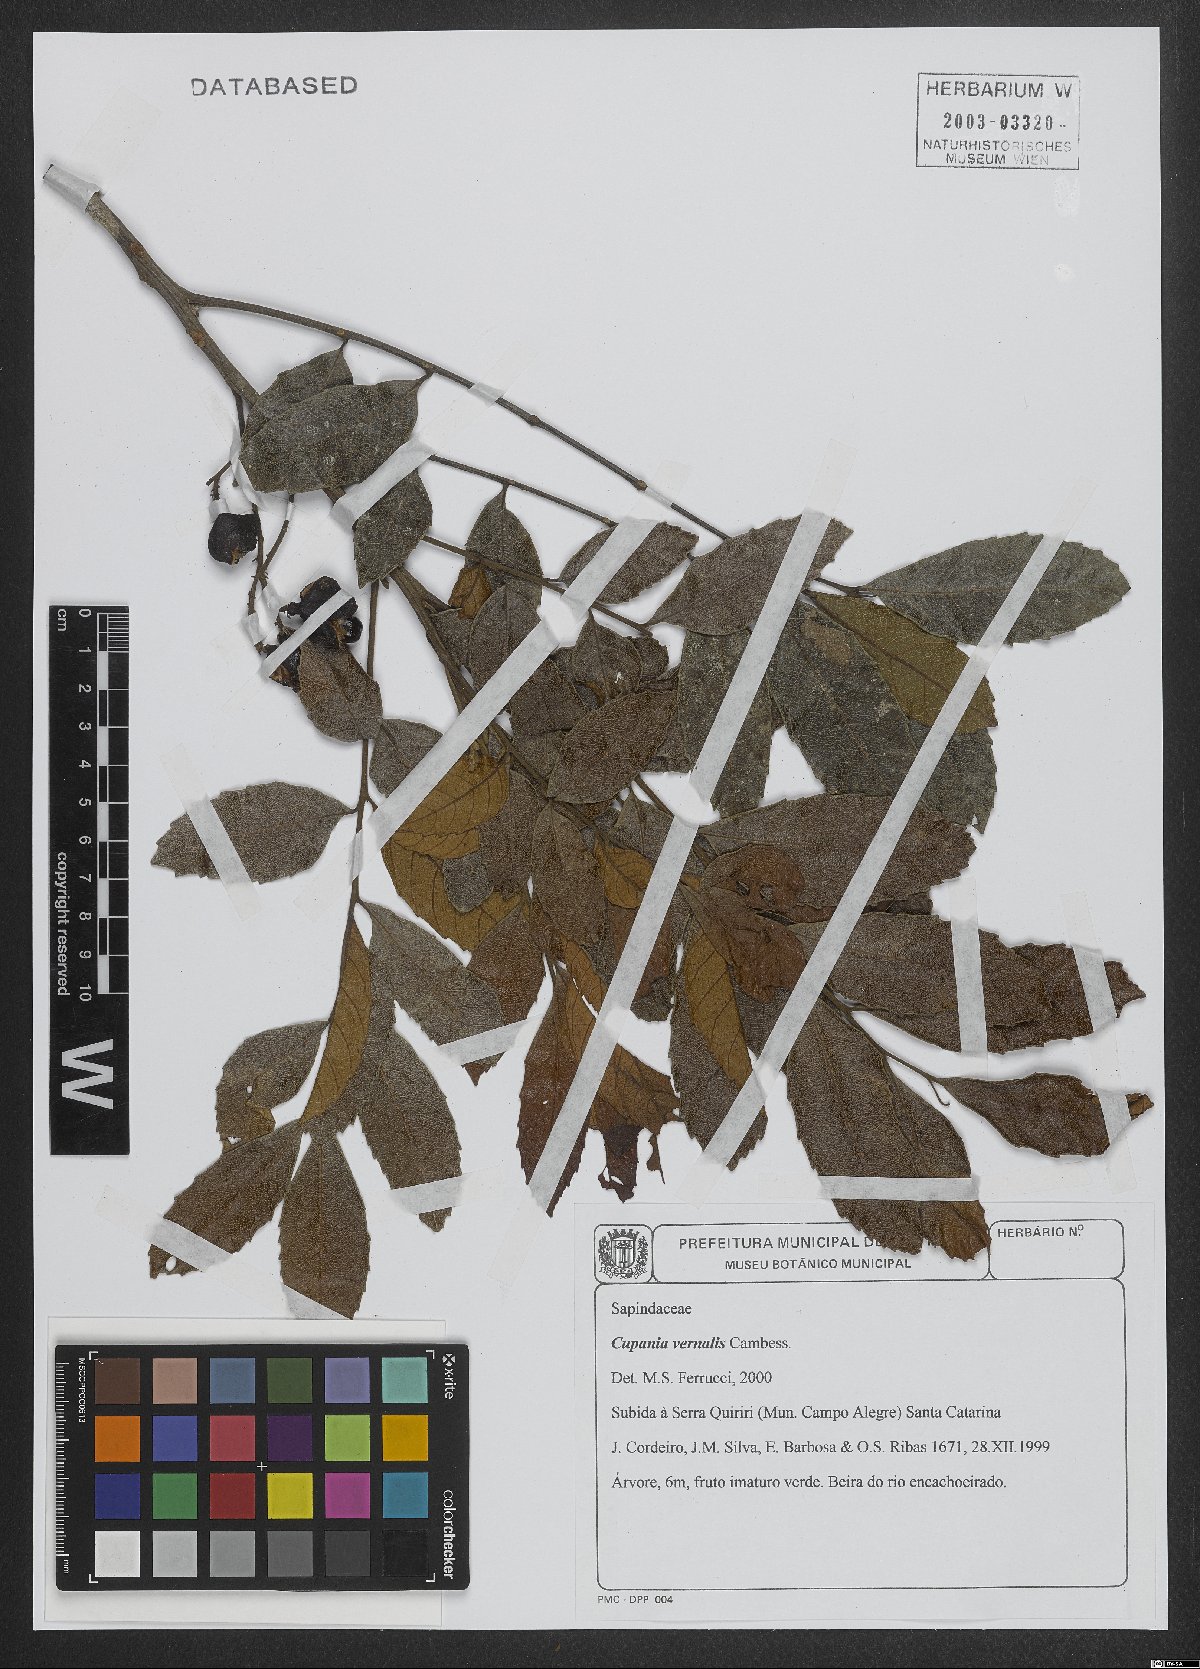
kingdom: Plantae
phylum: Tracheophyta
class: Magnoliopsida
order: Sapindales
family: Sapindaceae
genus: Cupania
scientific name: Cupania vernalis
